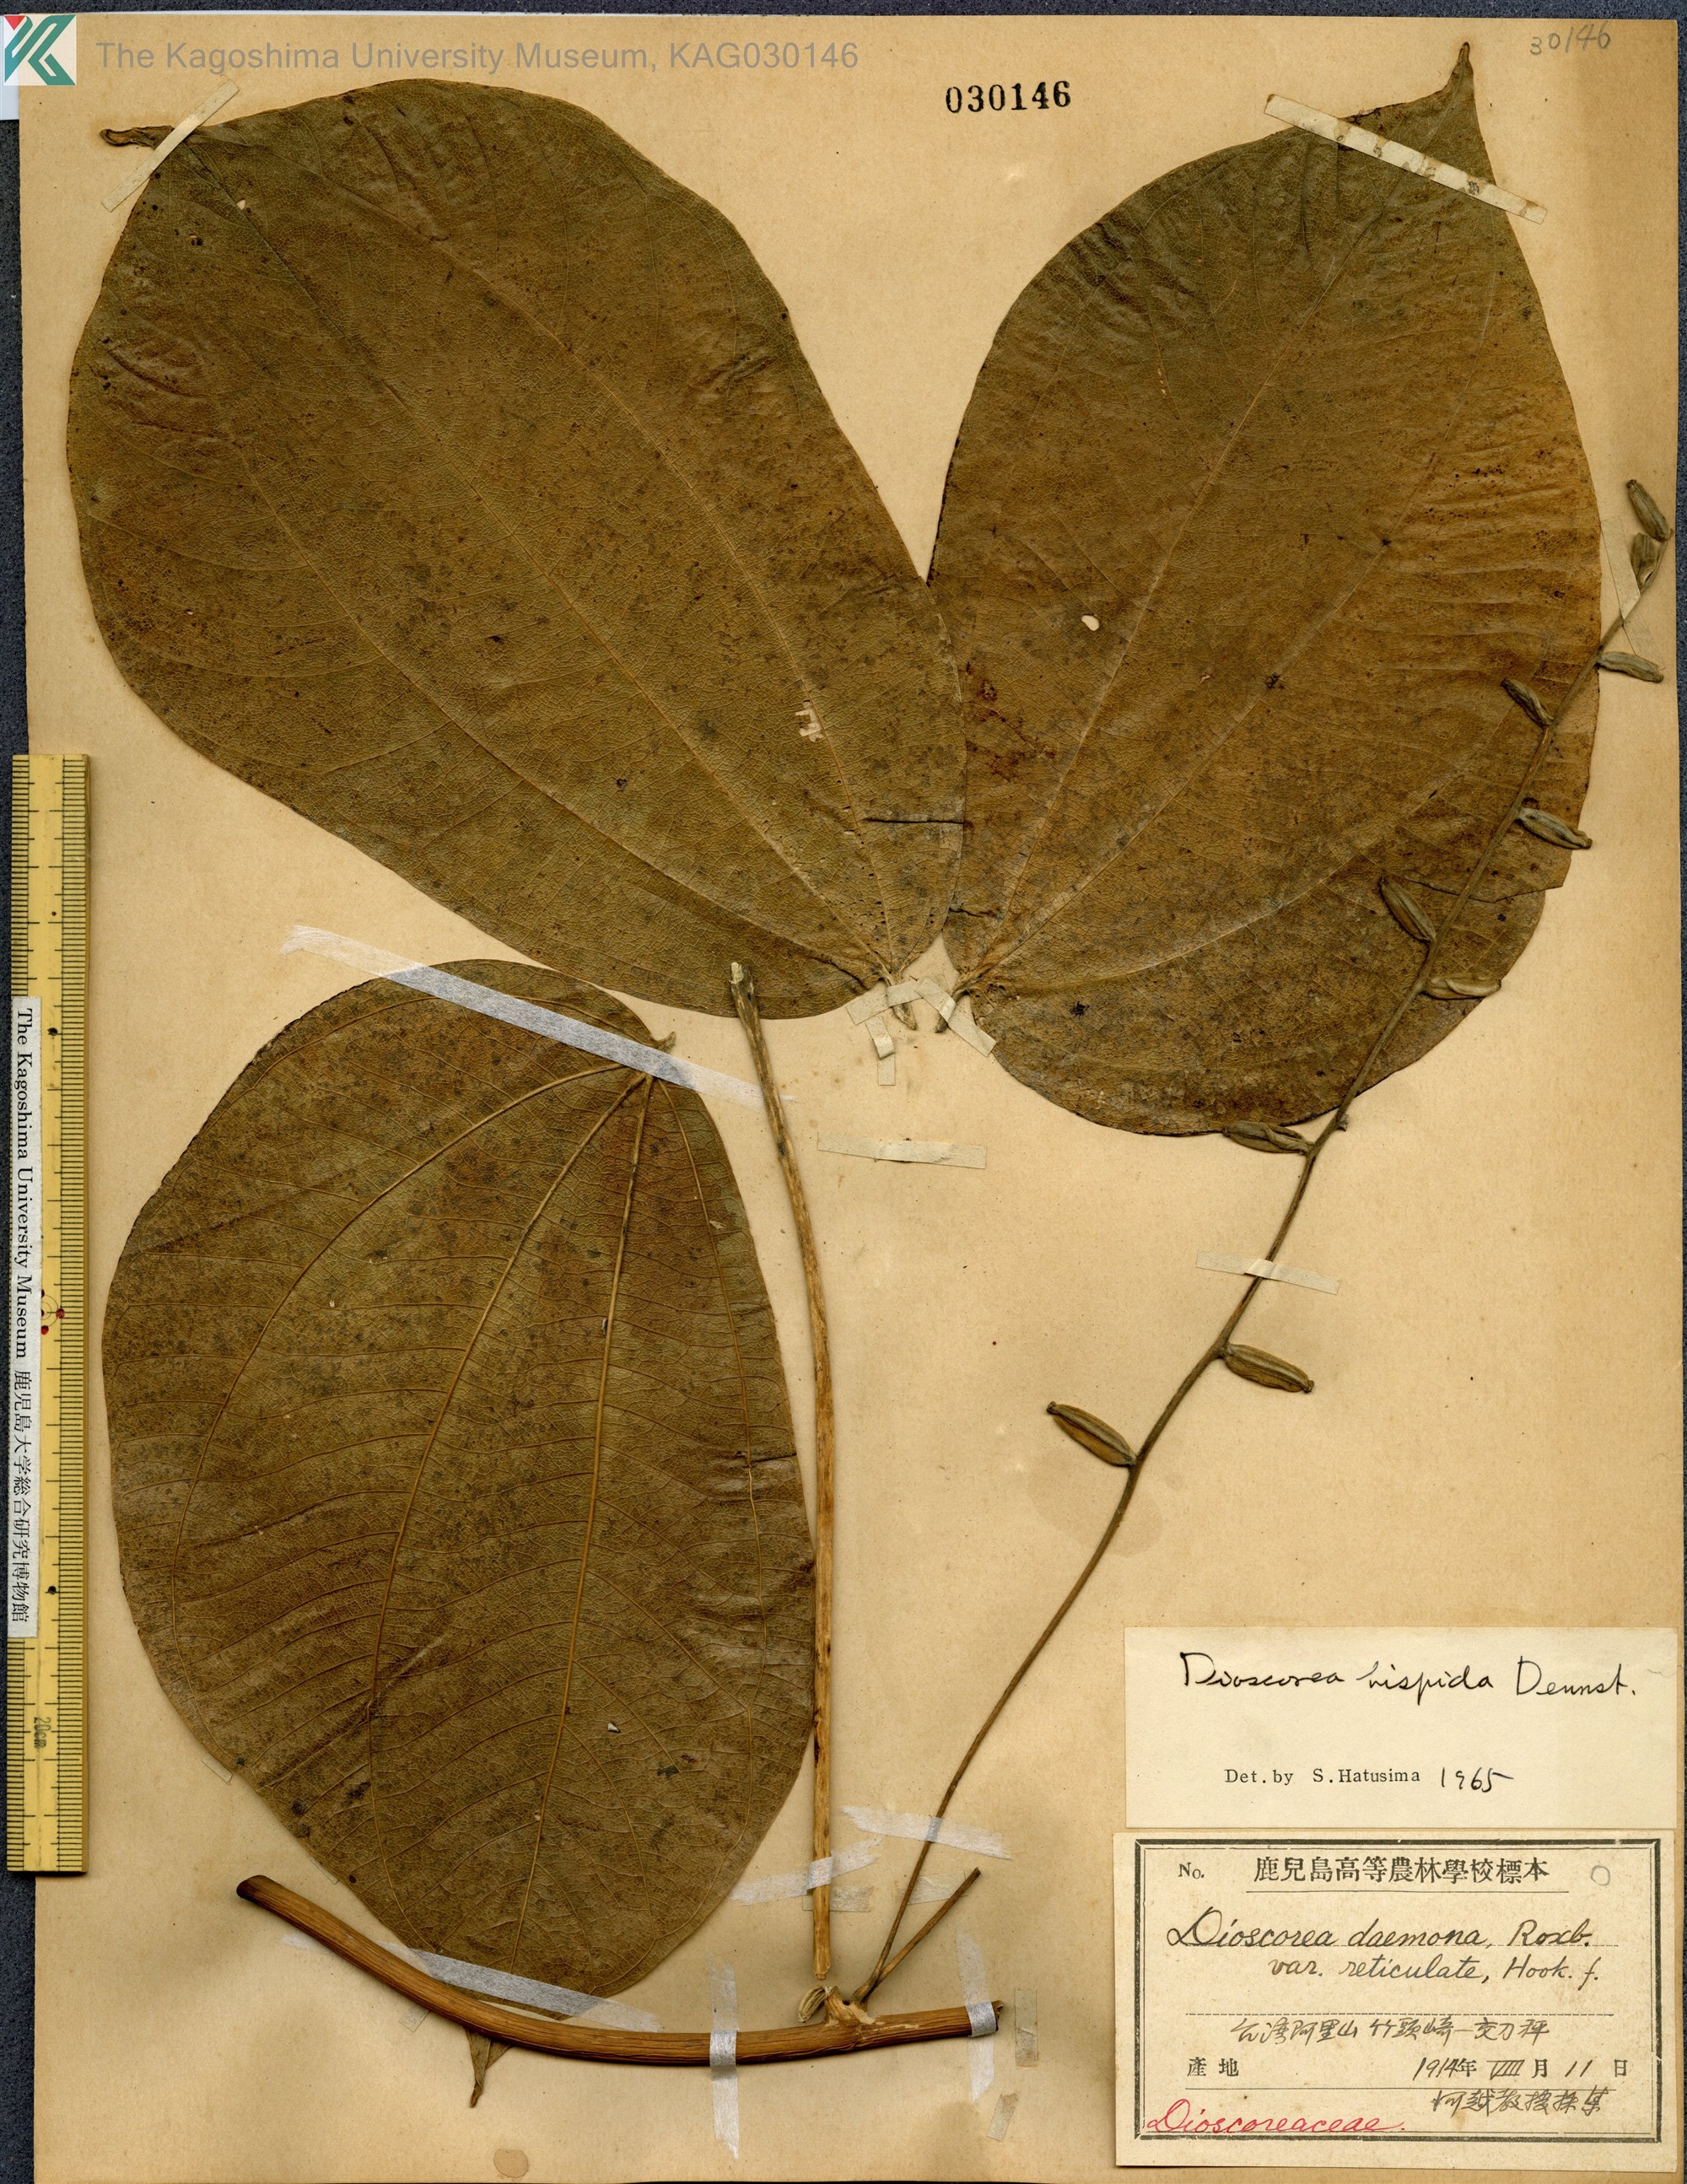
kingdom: Plantae
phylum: Tracheophyta
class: Liliopsida
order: Dioscoreales
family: Dioscoreaceae
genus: Dioscorea
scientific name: Dioscorea hispida
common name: Asiatic bitter yam
